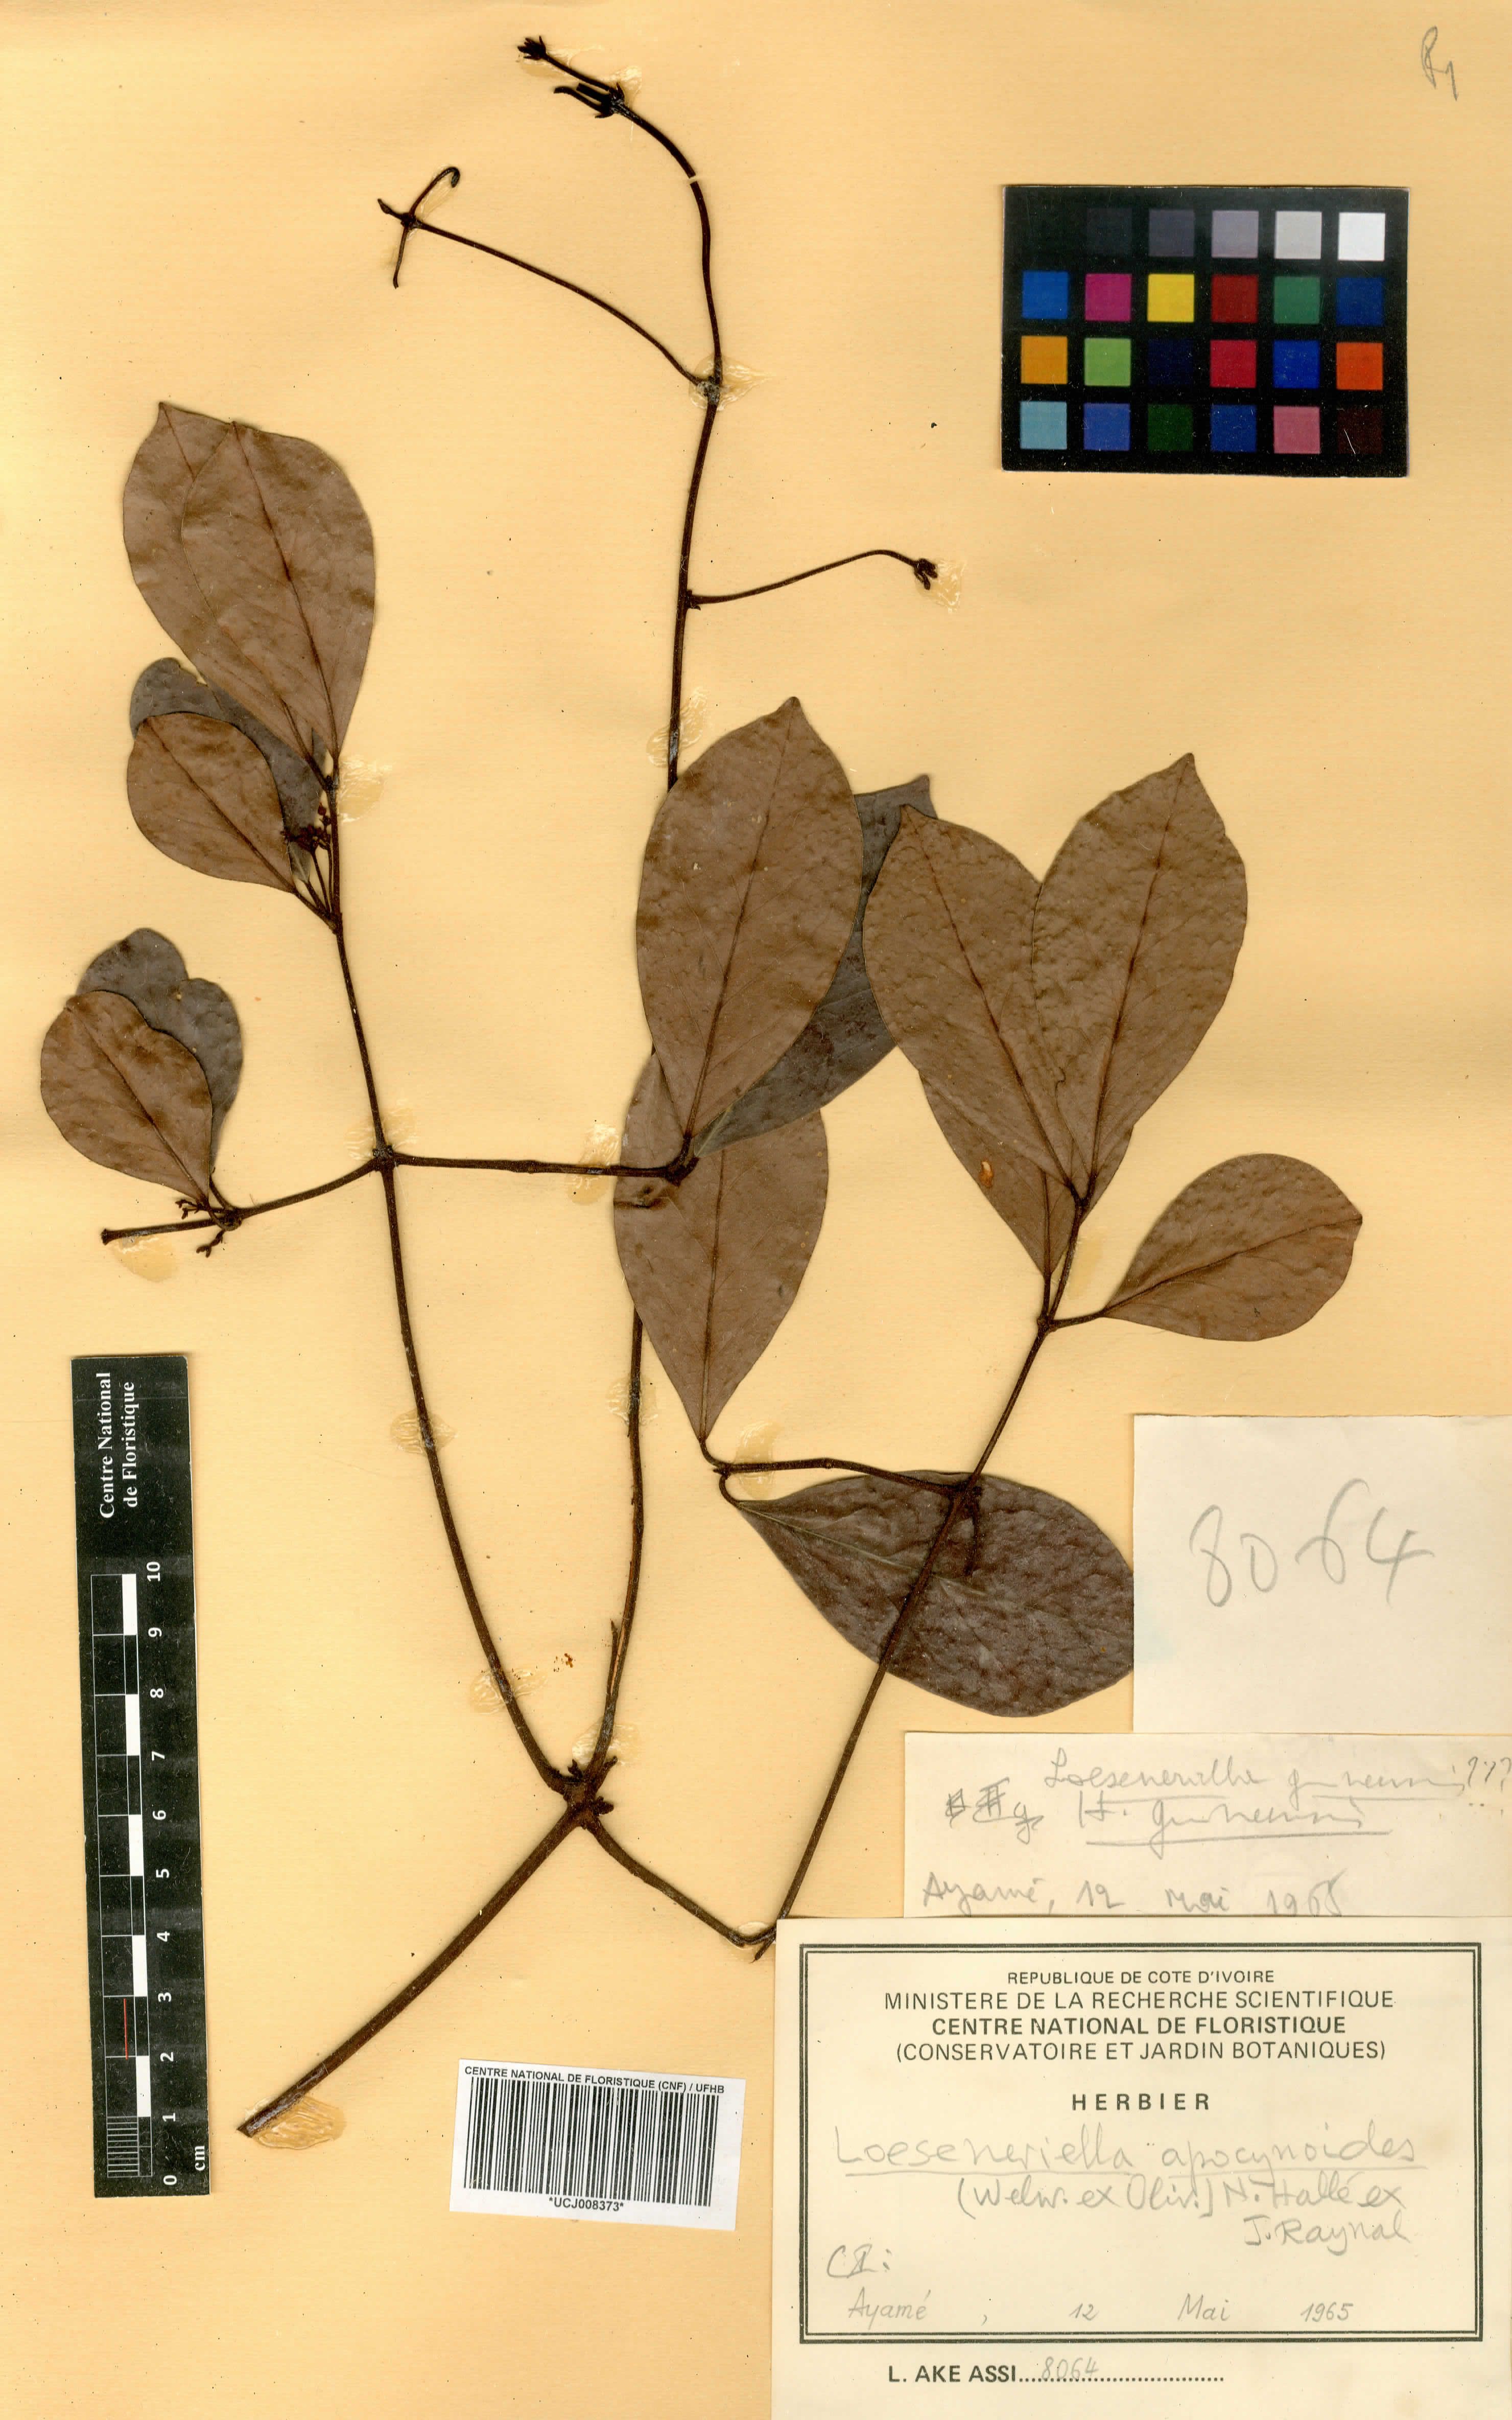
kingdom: Plantae
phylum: Tracheophyta
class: Magnoliopsida
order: Celastrales
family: Celastraceae
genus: Loeseneriella
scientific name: Loeseneriella africana
